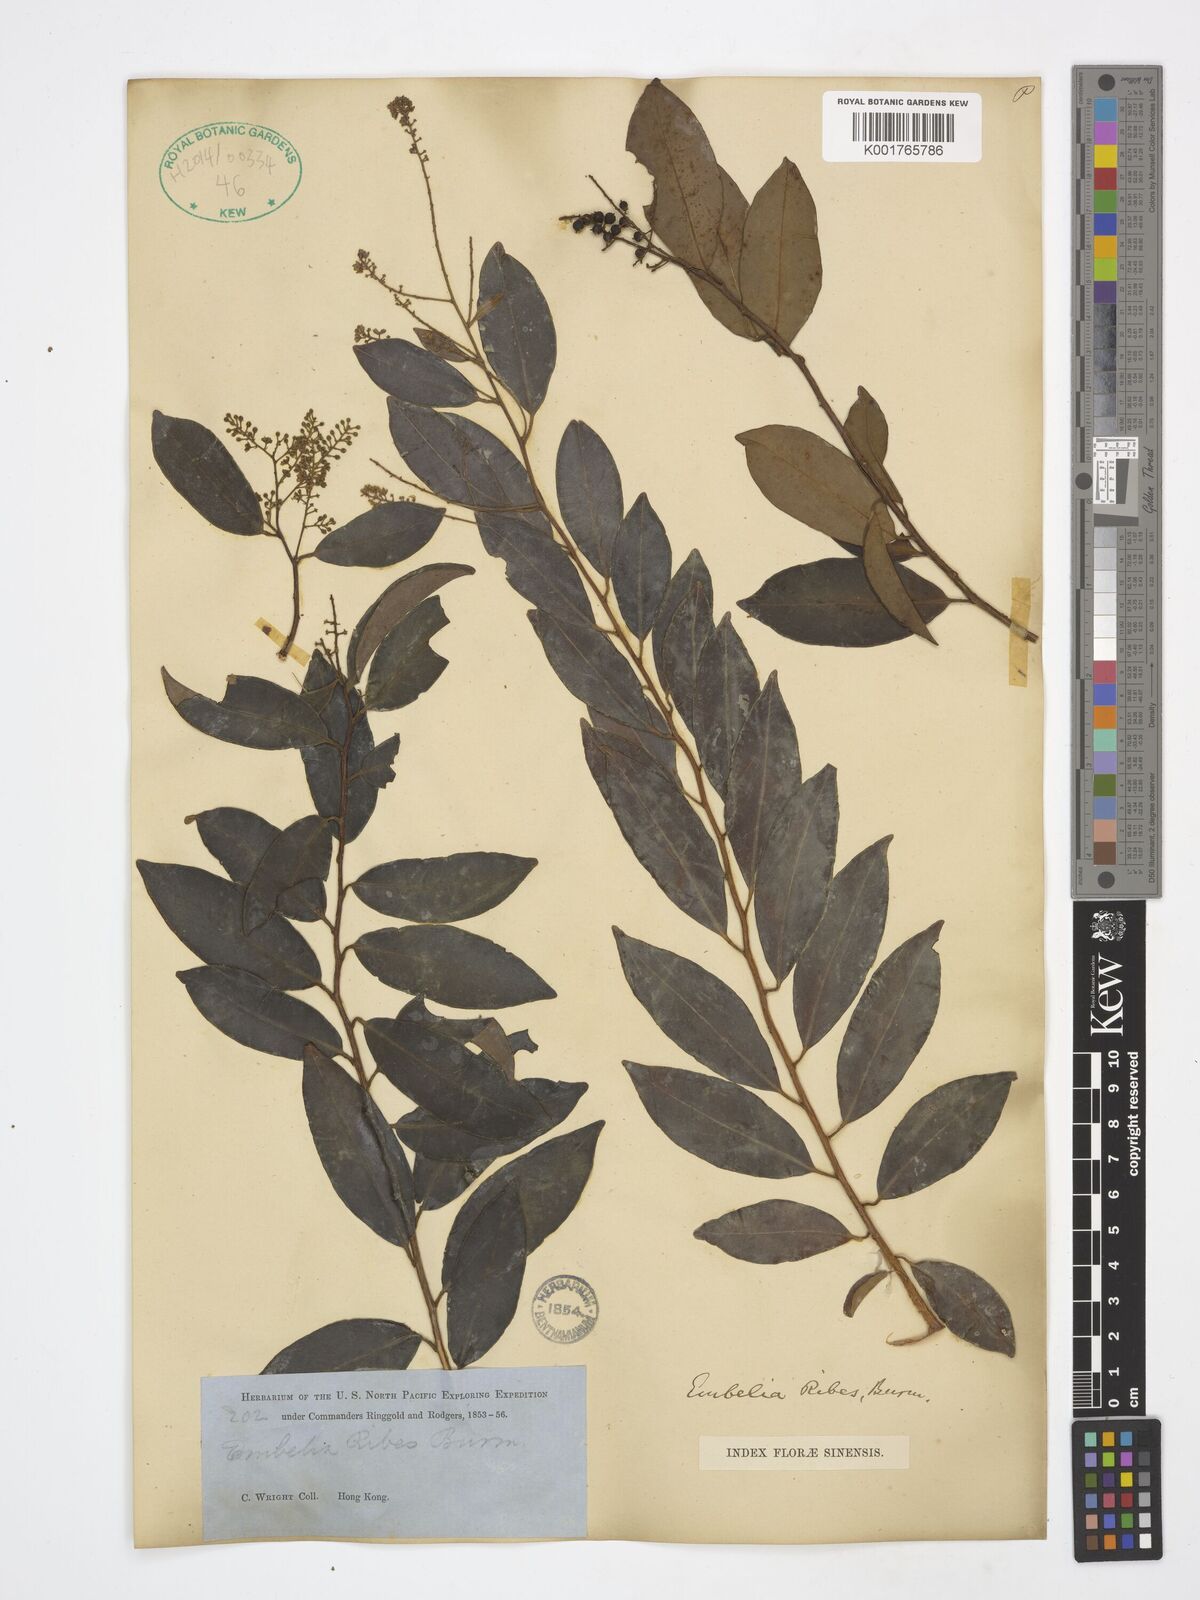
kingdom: Plantae
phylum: Tracheophyta
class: Magnoliopsida
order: Ericales
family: Primulaceae
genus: Embelia
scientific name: Embelia ribes
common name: Vidanga
